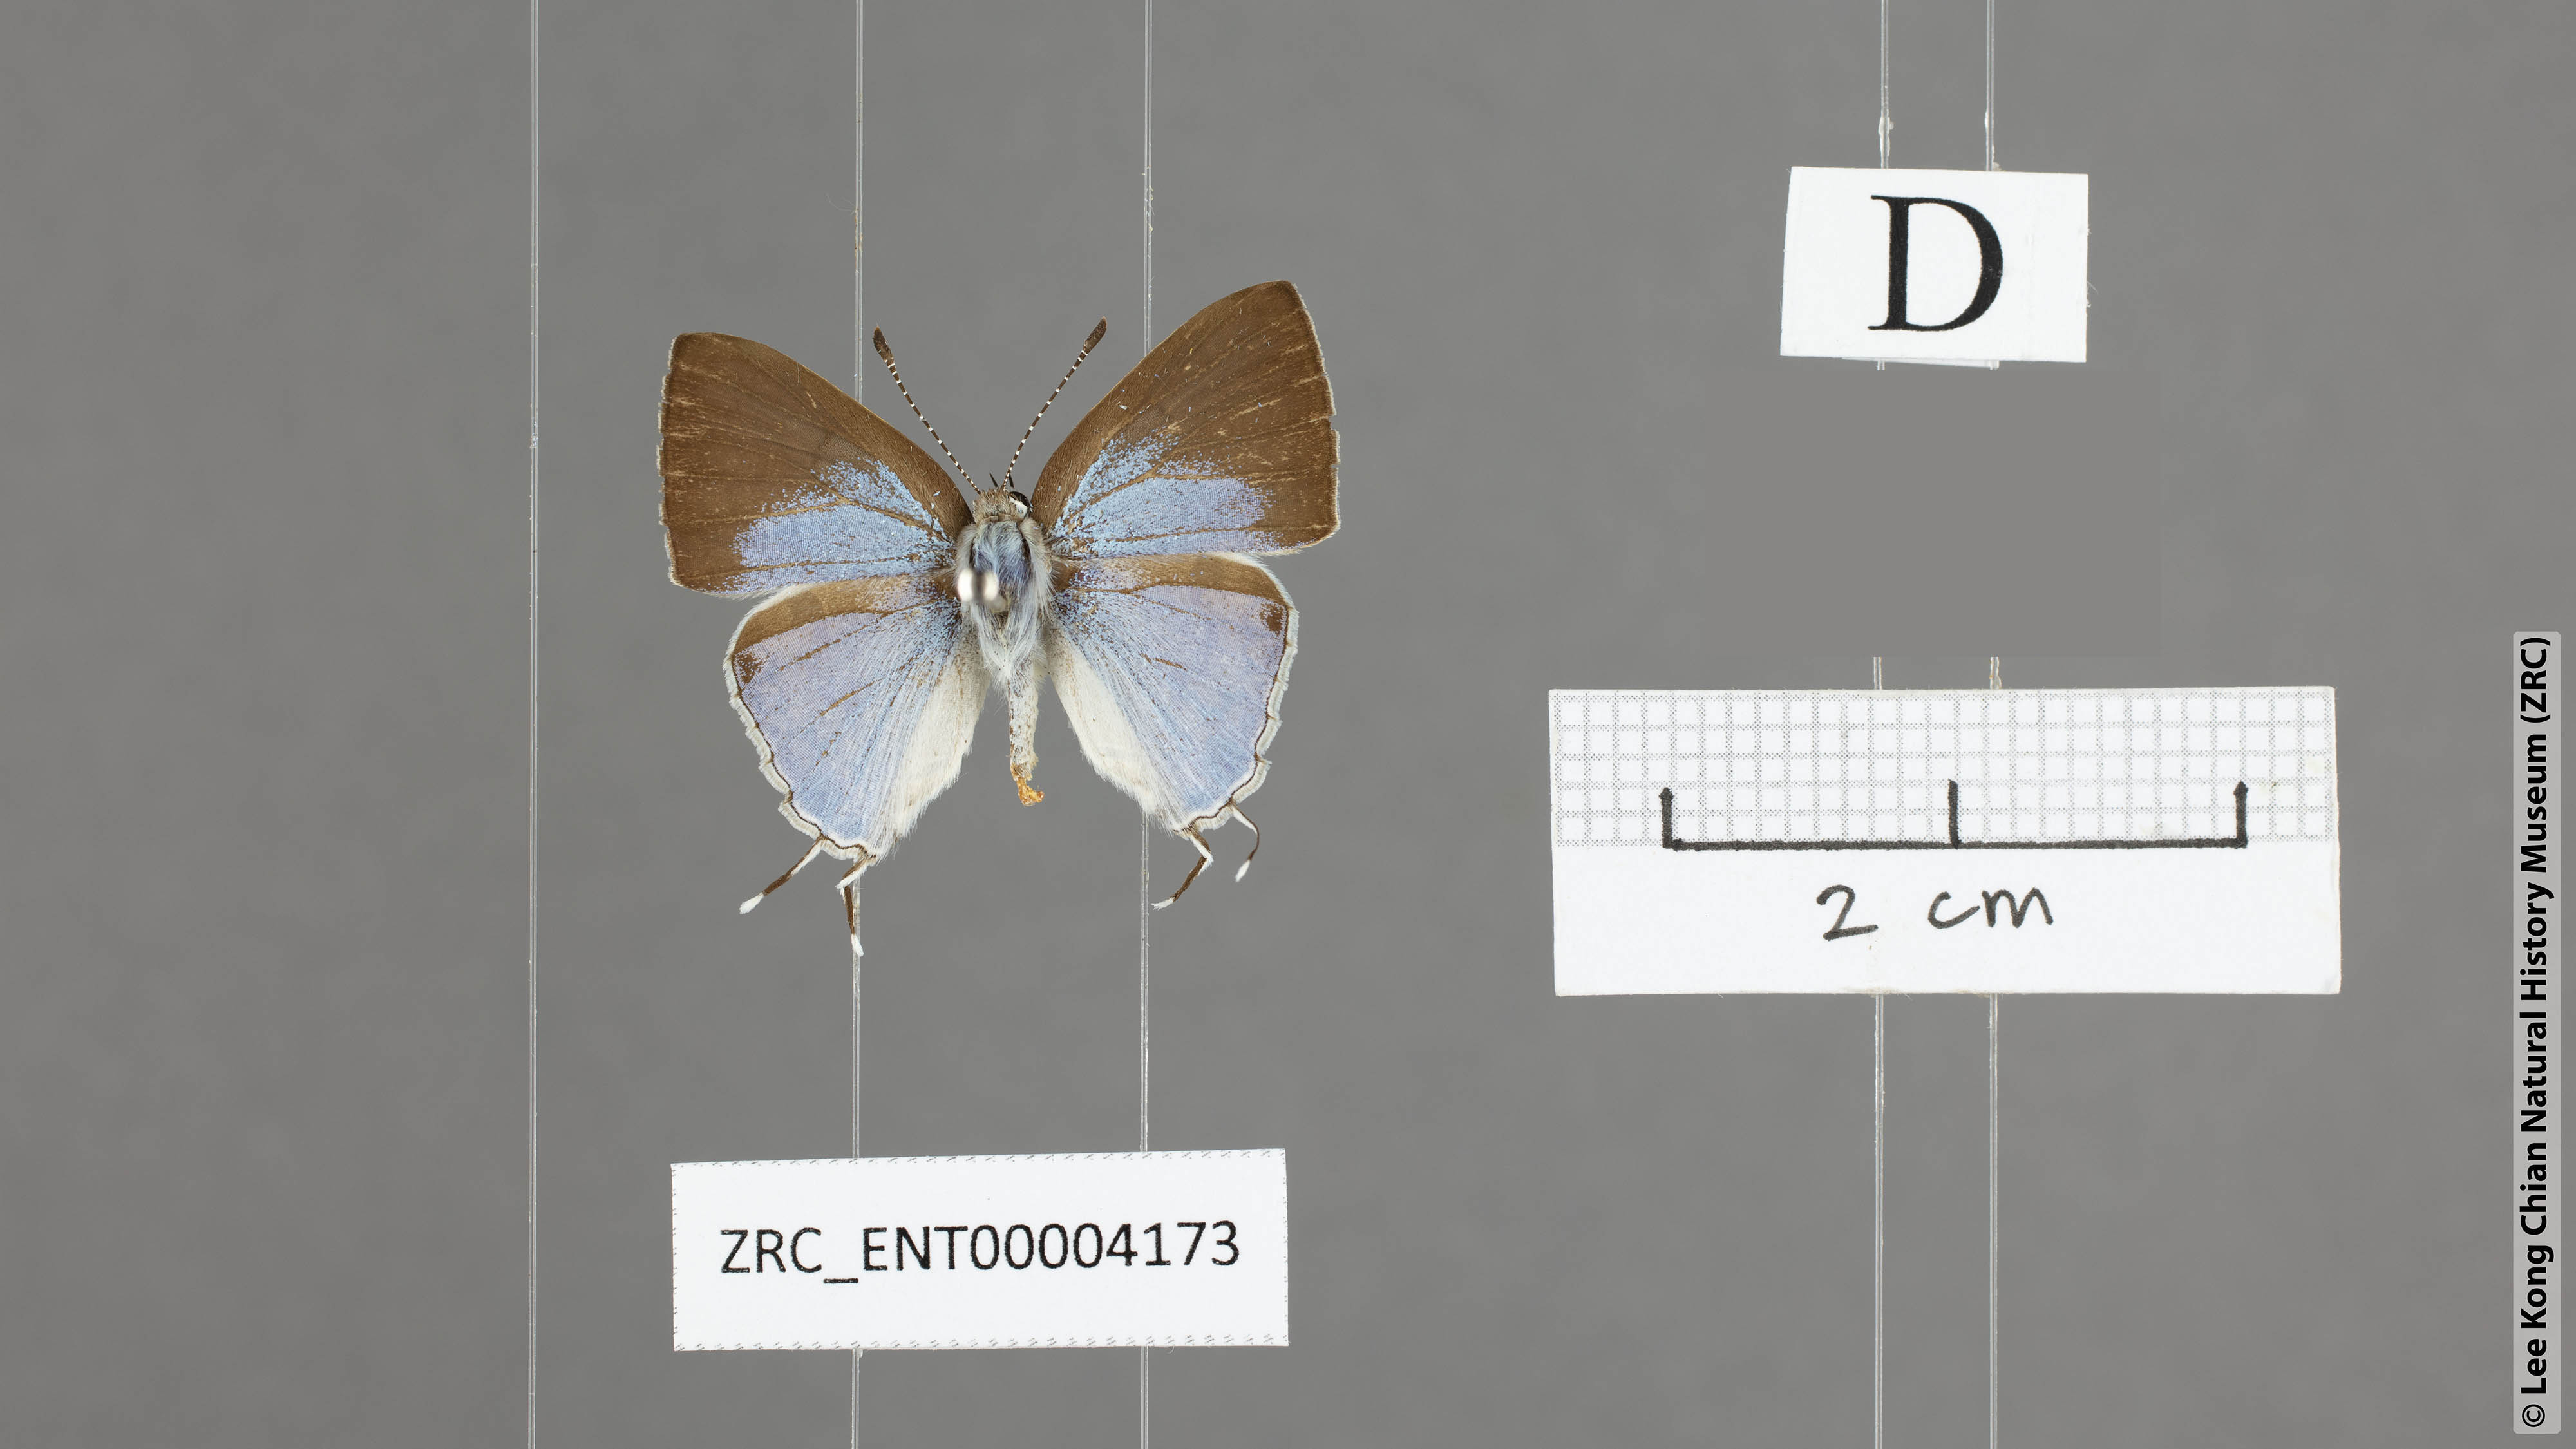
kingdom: Animalia
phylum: Arthropoda
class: Insecta
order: Lepidoptera
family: Lycaenidae
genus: Chliaria
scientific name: Chliaria othona
